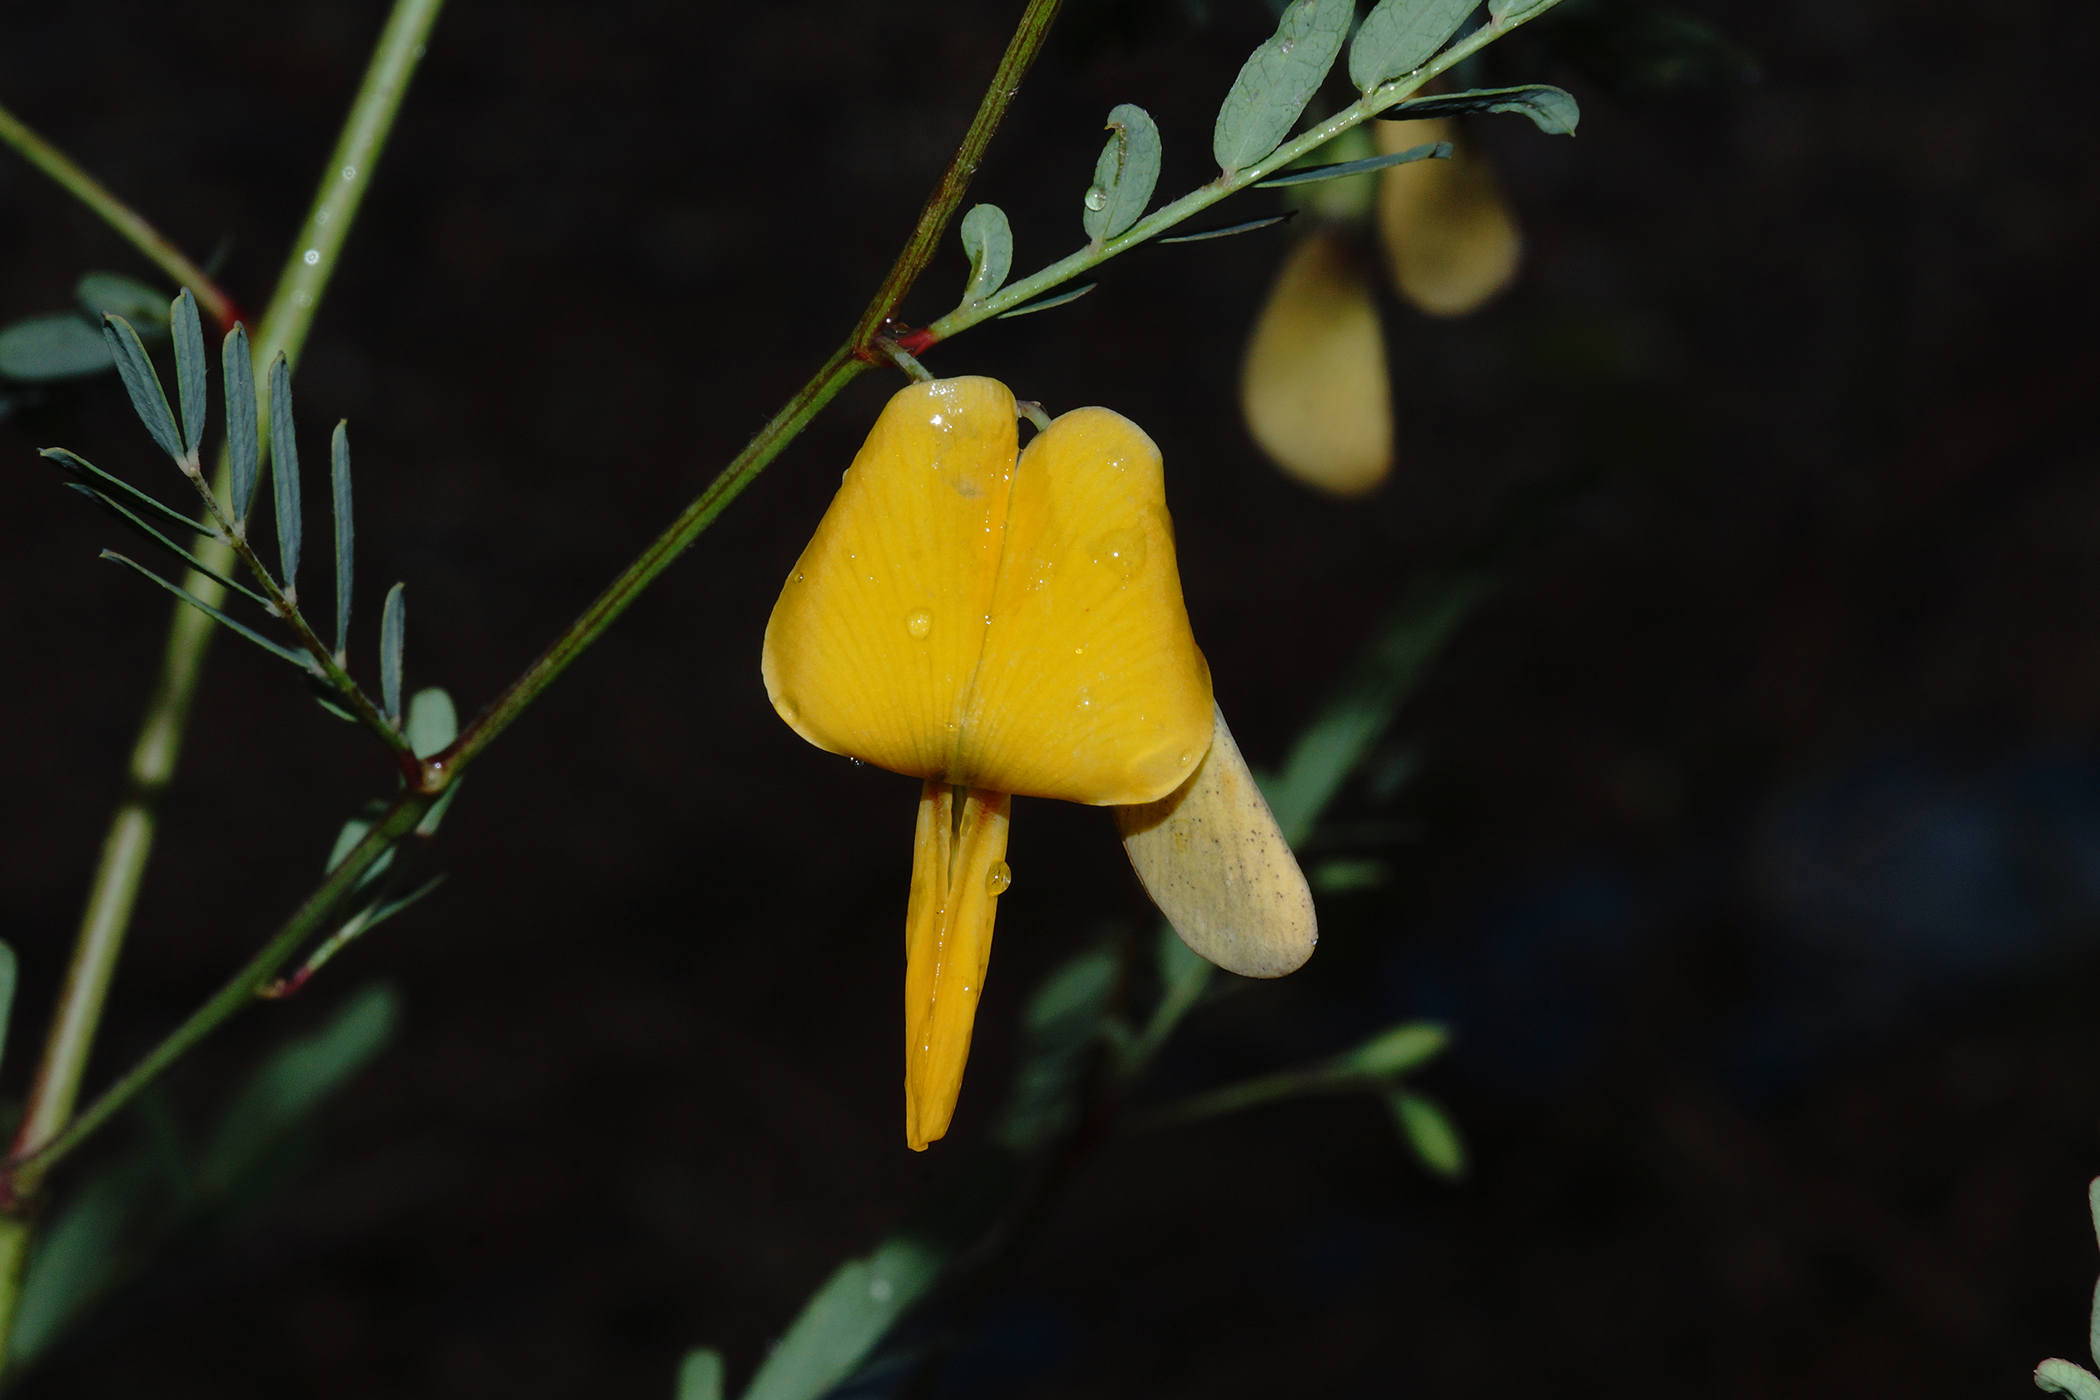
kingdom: Plantae
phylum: Tracheophyta
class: Magnoliopsida
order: Fabales
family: Fabaceae
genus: Sesbania
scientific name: Sesbania javanica
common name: Sesbania-pea
